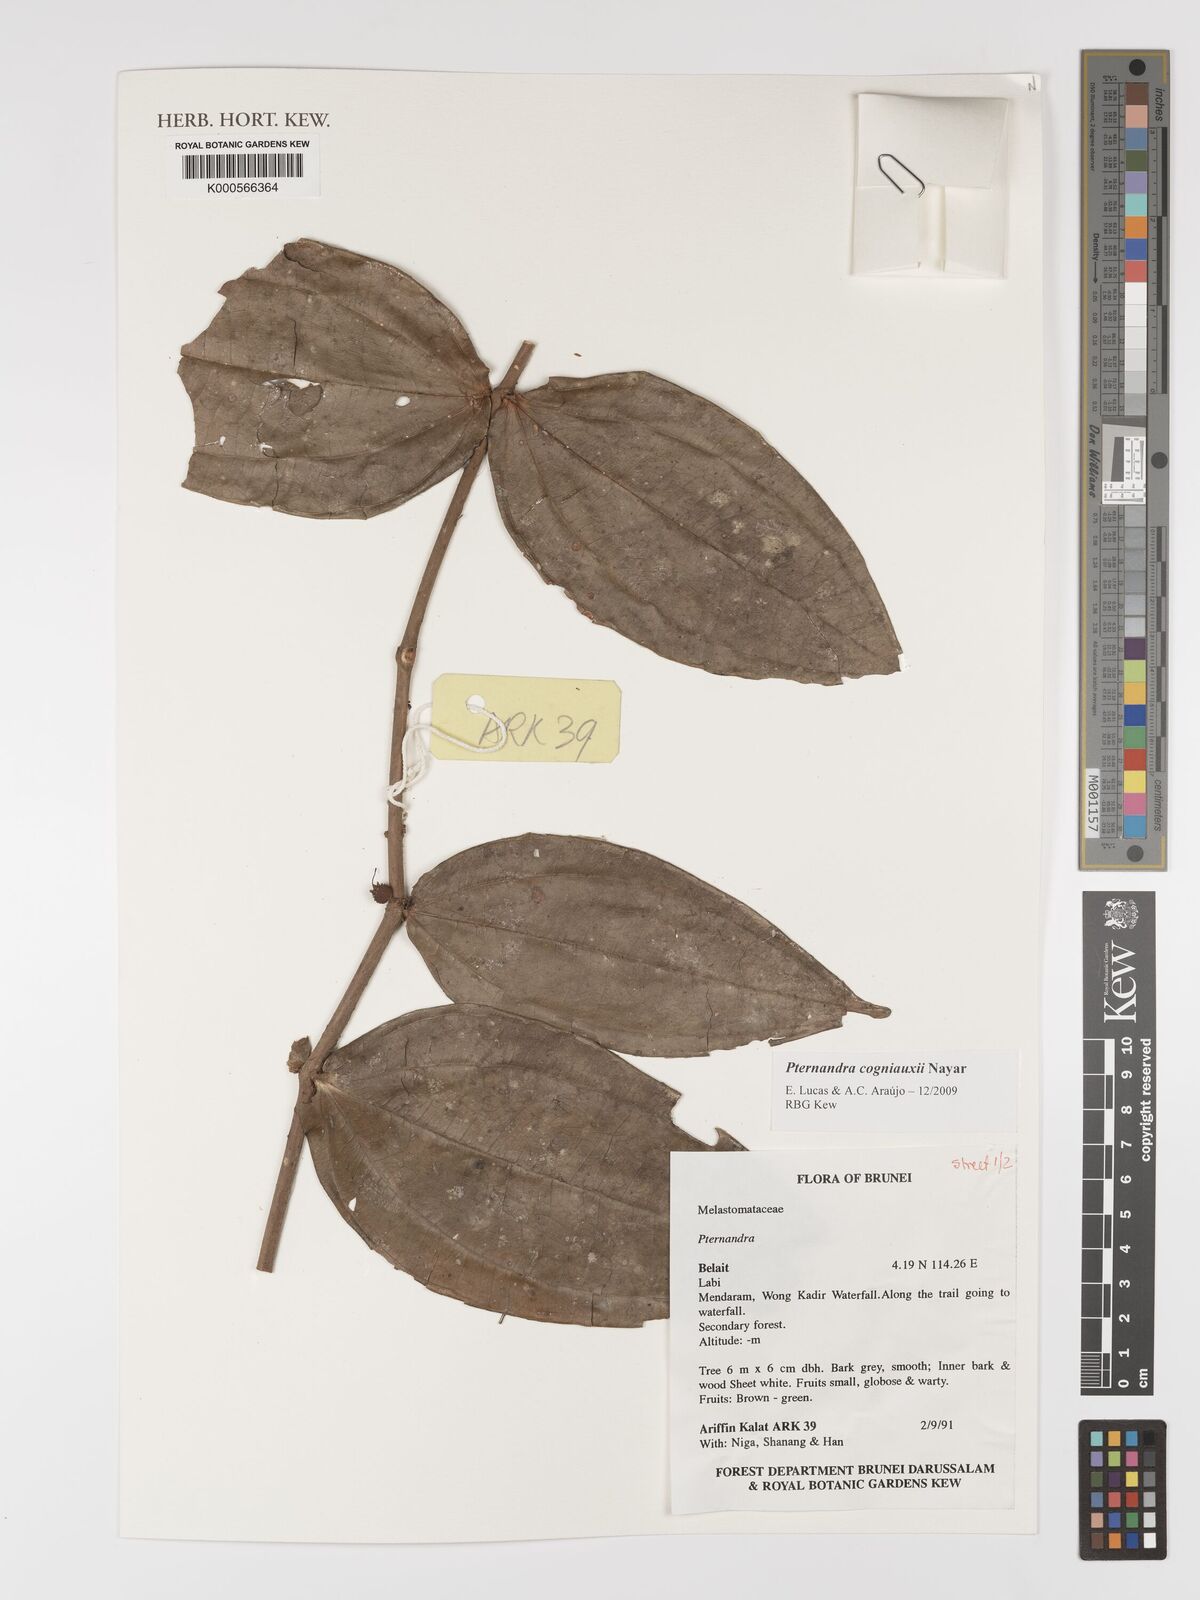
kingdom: Plantae
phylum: Tracheophyta
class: Magnoliopsida
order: Myrtales
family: Melastomataceae
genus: Pternandra
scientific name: Pternandra cogniauxii
